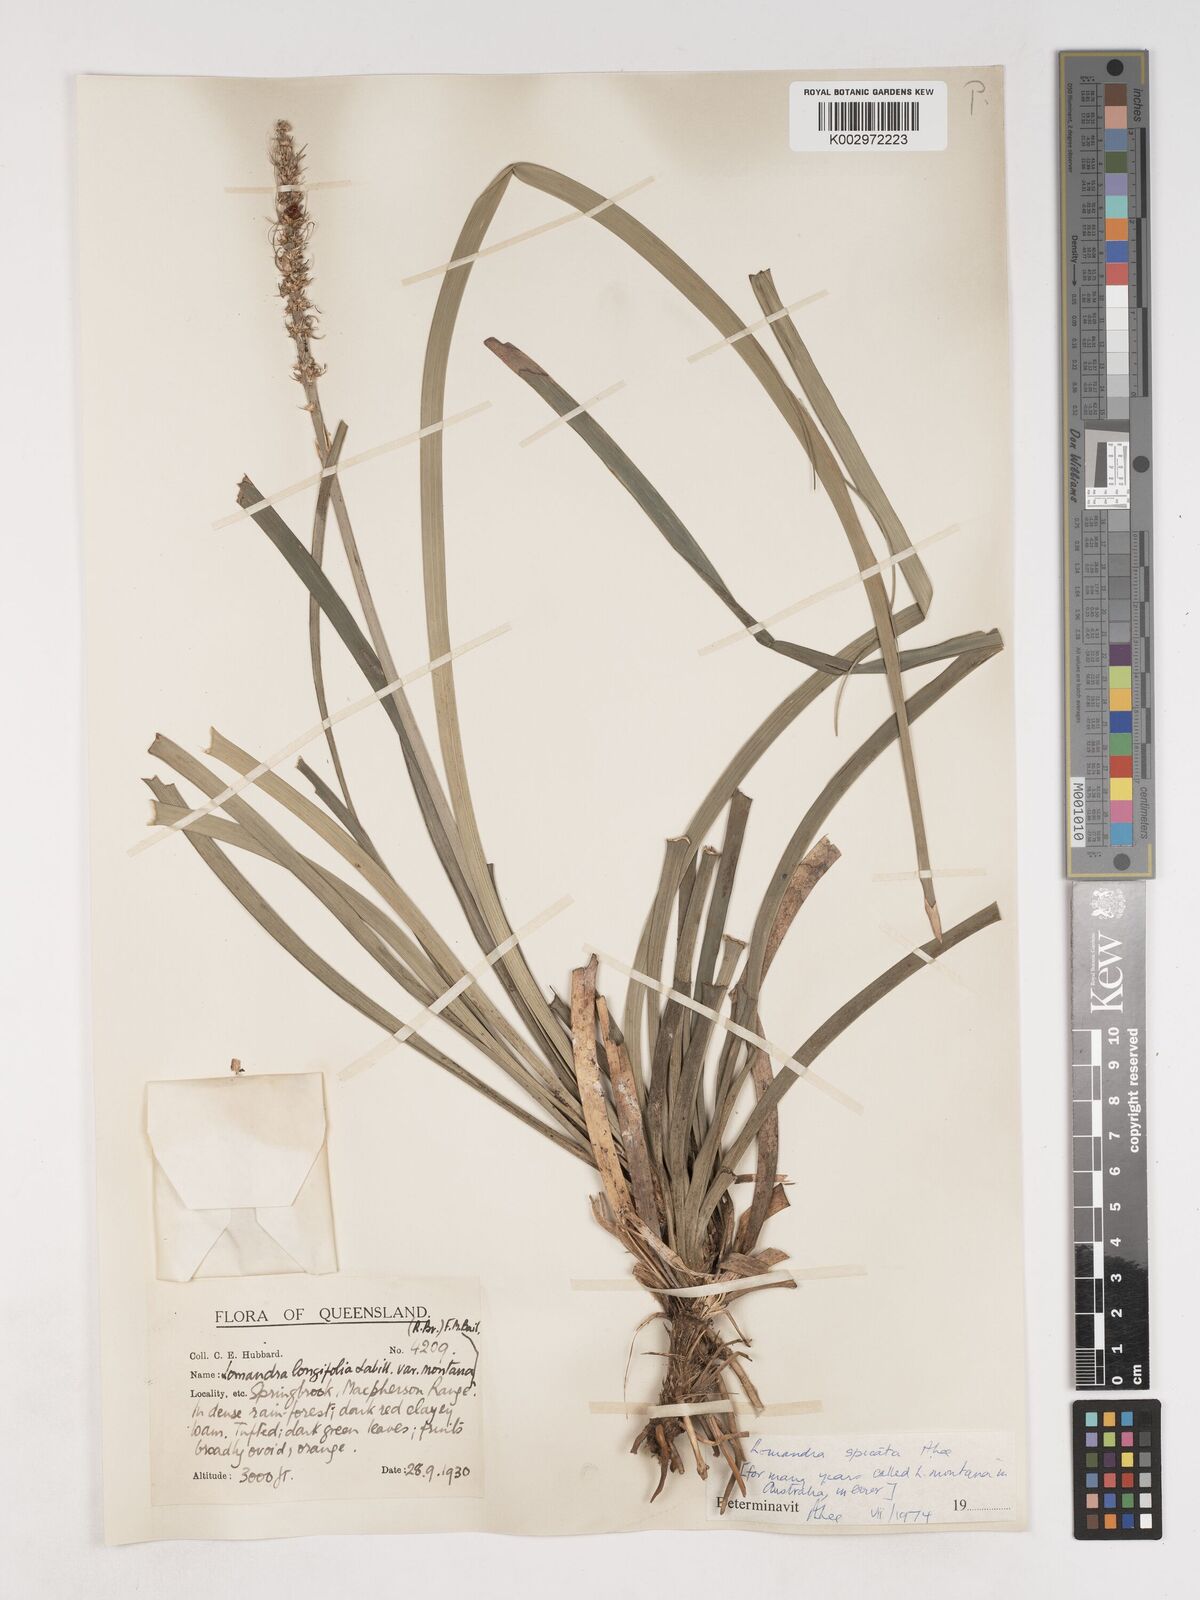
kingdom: Plantae
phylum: Tracheophyta
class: Liliopsida
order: Asparagales
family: Asparagaceae
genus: Lomandra
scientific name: Lomandra spicata
